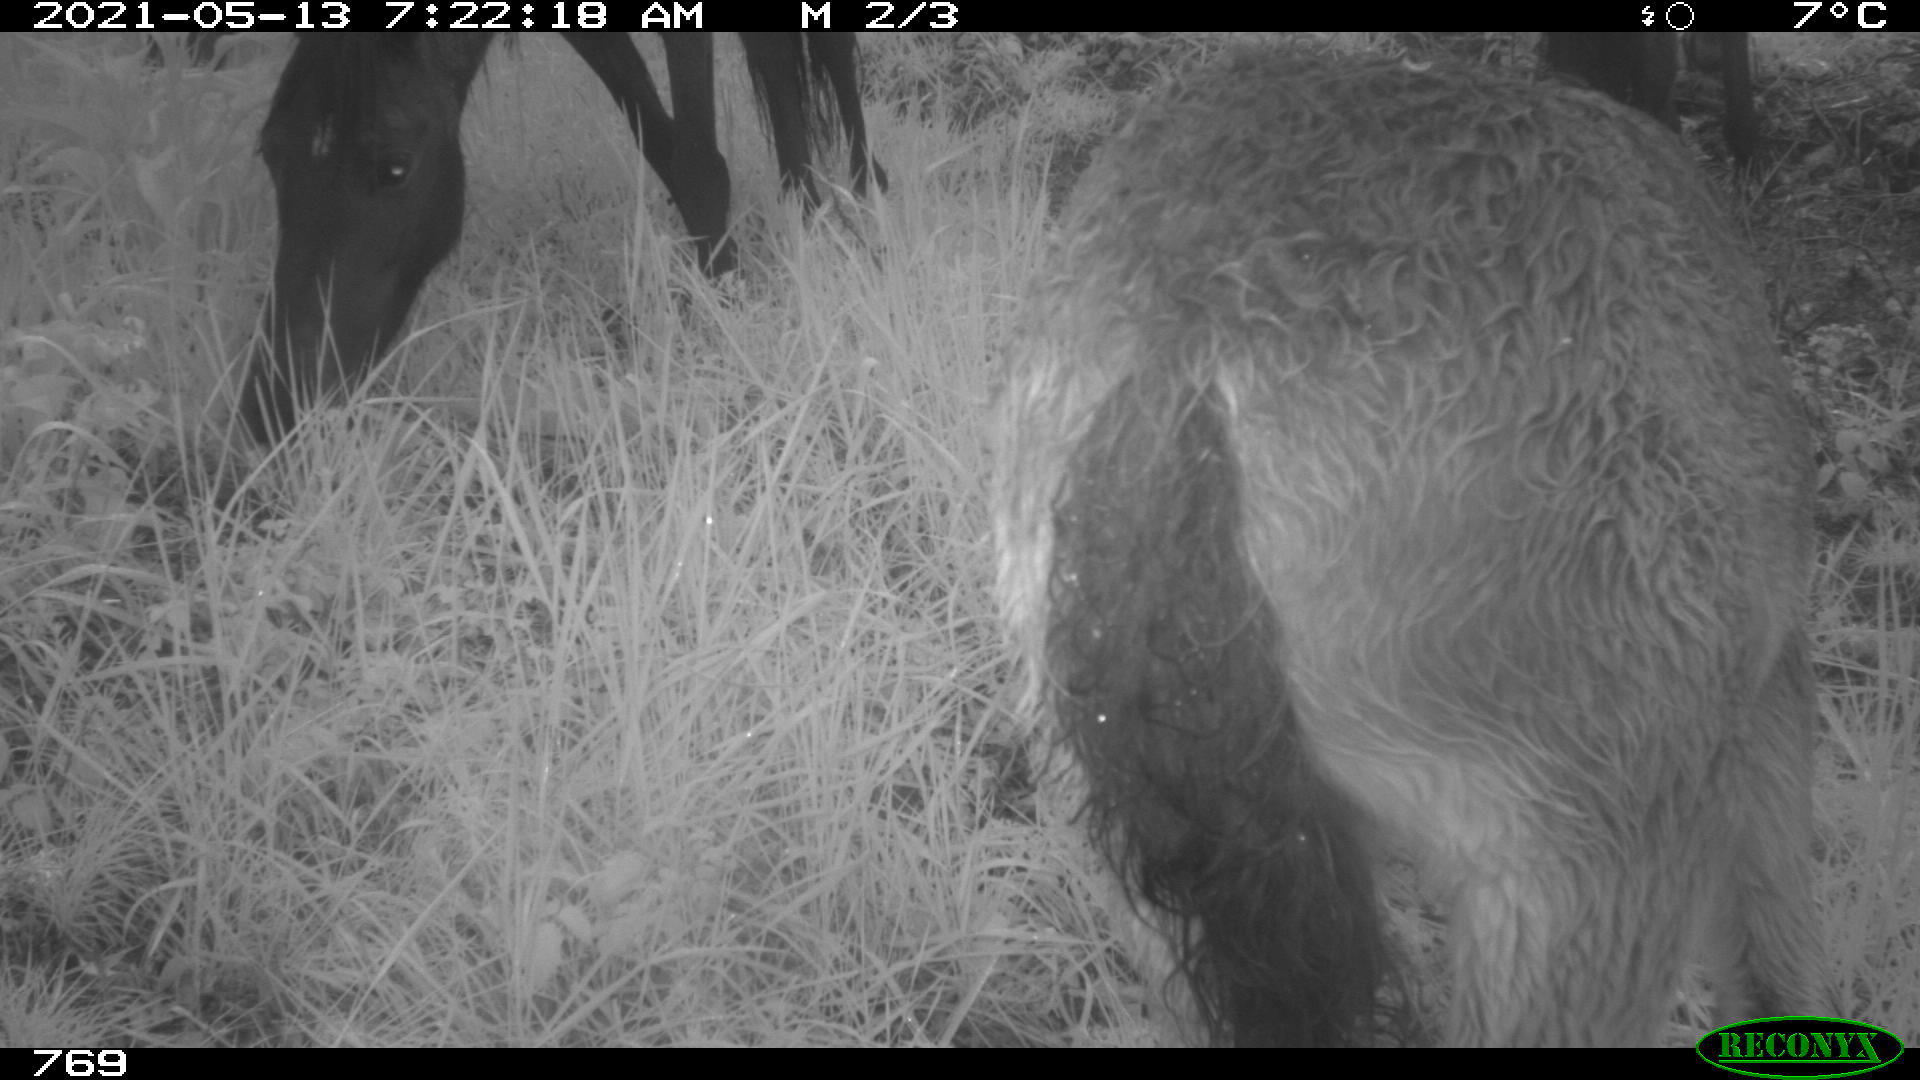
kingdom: Animalia
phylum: Chordata
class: Mammalia
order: Perissodactyla
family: Equidae
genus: Equus
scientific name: Equus caballus
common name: Horse
